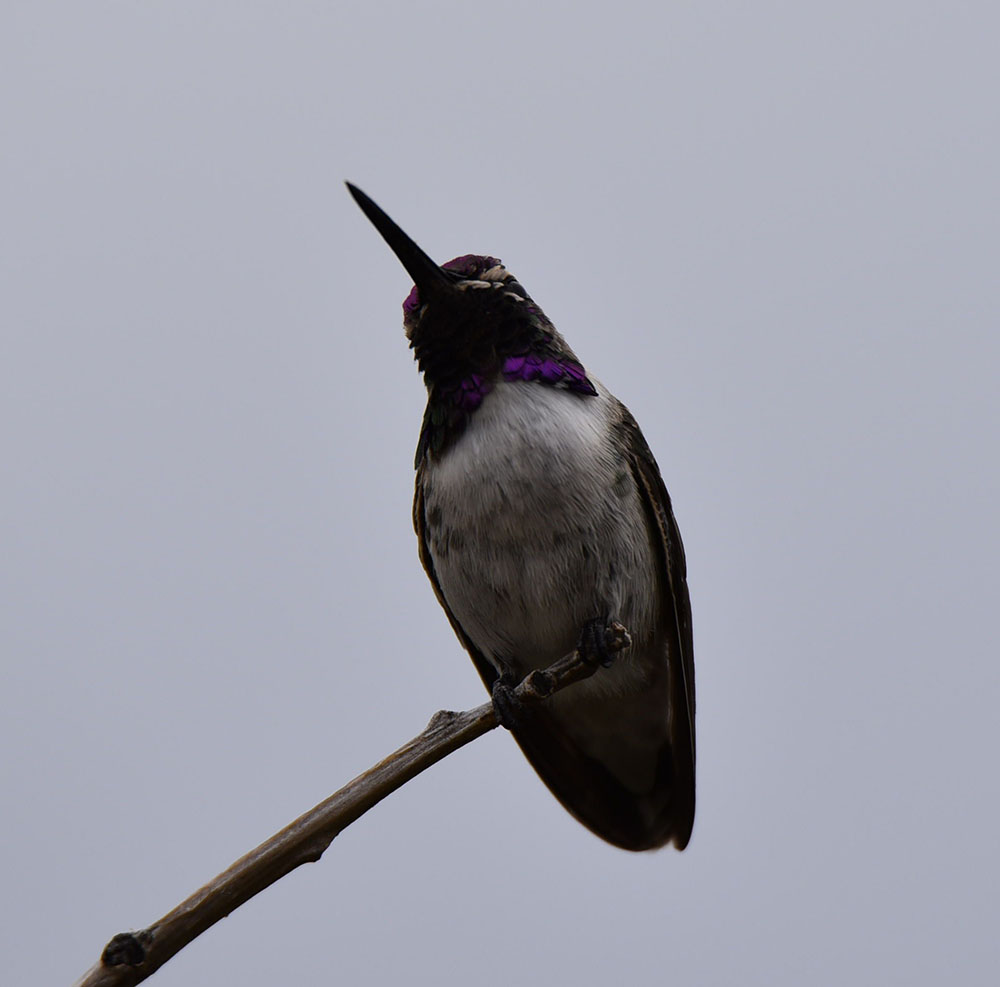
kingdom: Animalia
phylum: Chordata
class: Aves
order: Apodiformes
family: Trochilidae
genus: Calypte
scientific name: Calypte costae
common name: Costa's hummingbird
